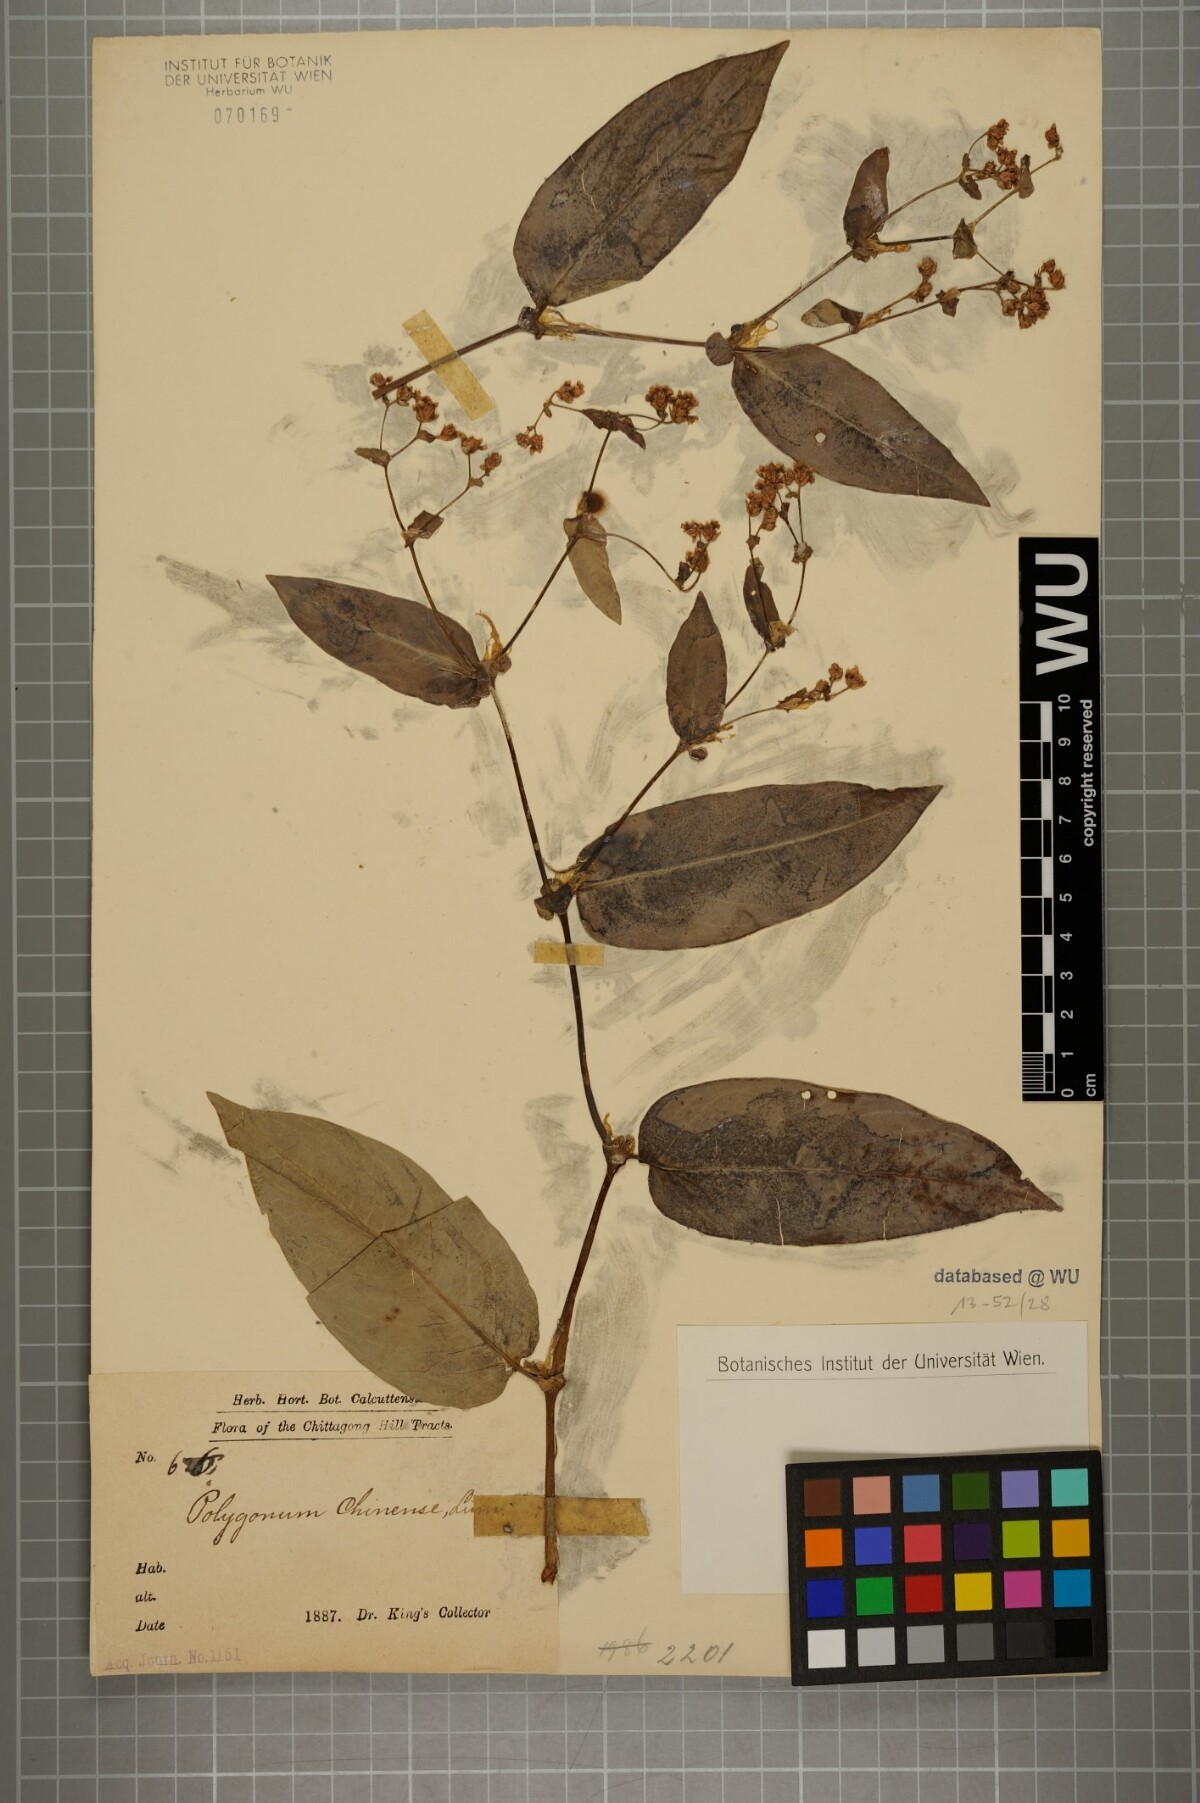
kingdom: Plantae
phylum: Tracheophyta
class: Magnoliopsida
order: Caryophyllales
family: Polygonaceae
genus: Persicaria
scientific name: Persicaria chinensis
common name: Chinese knotweed
